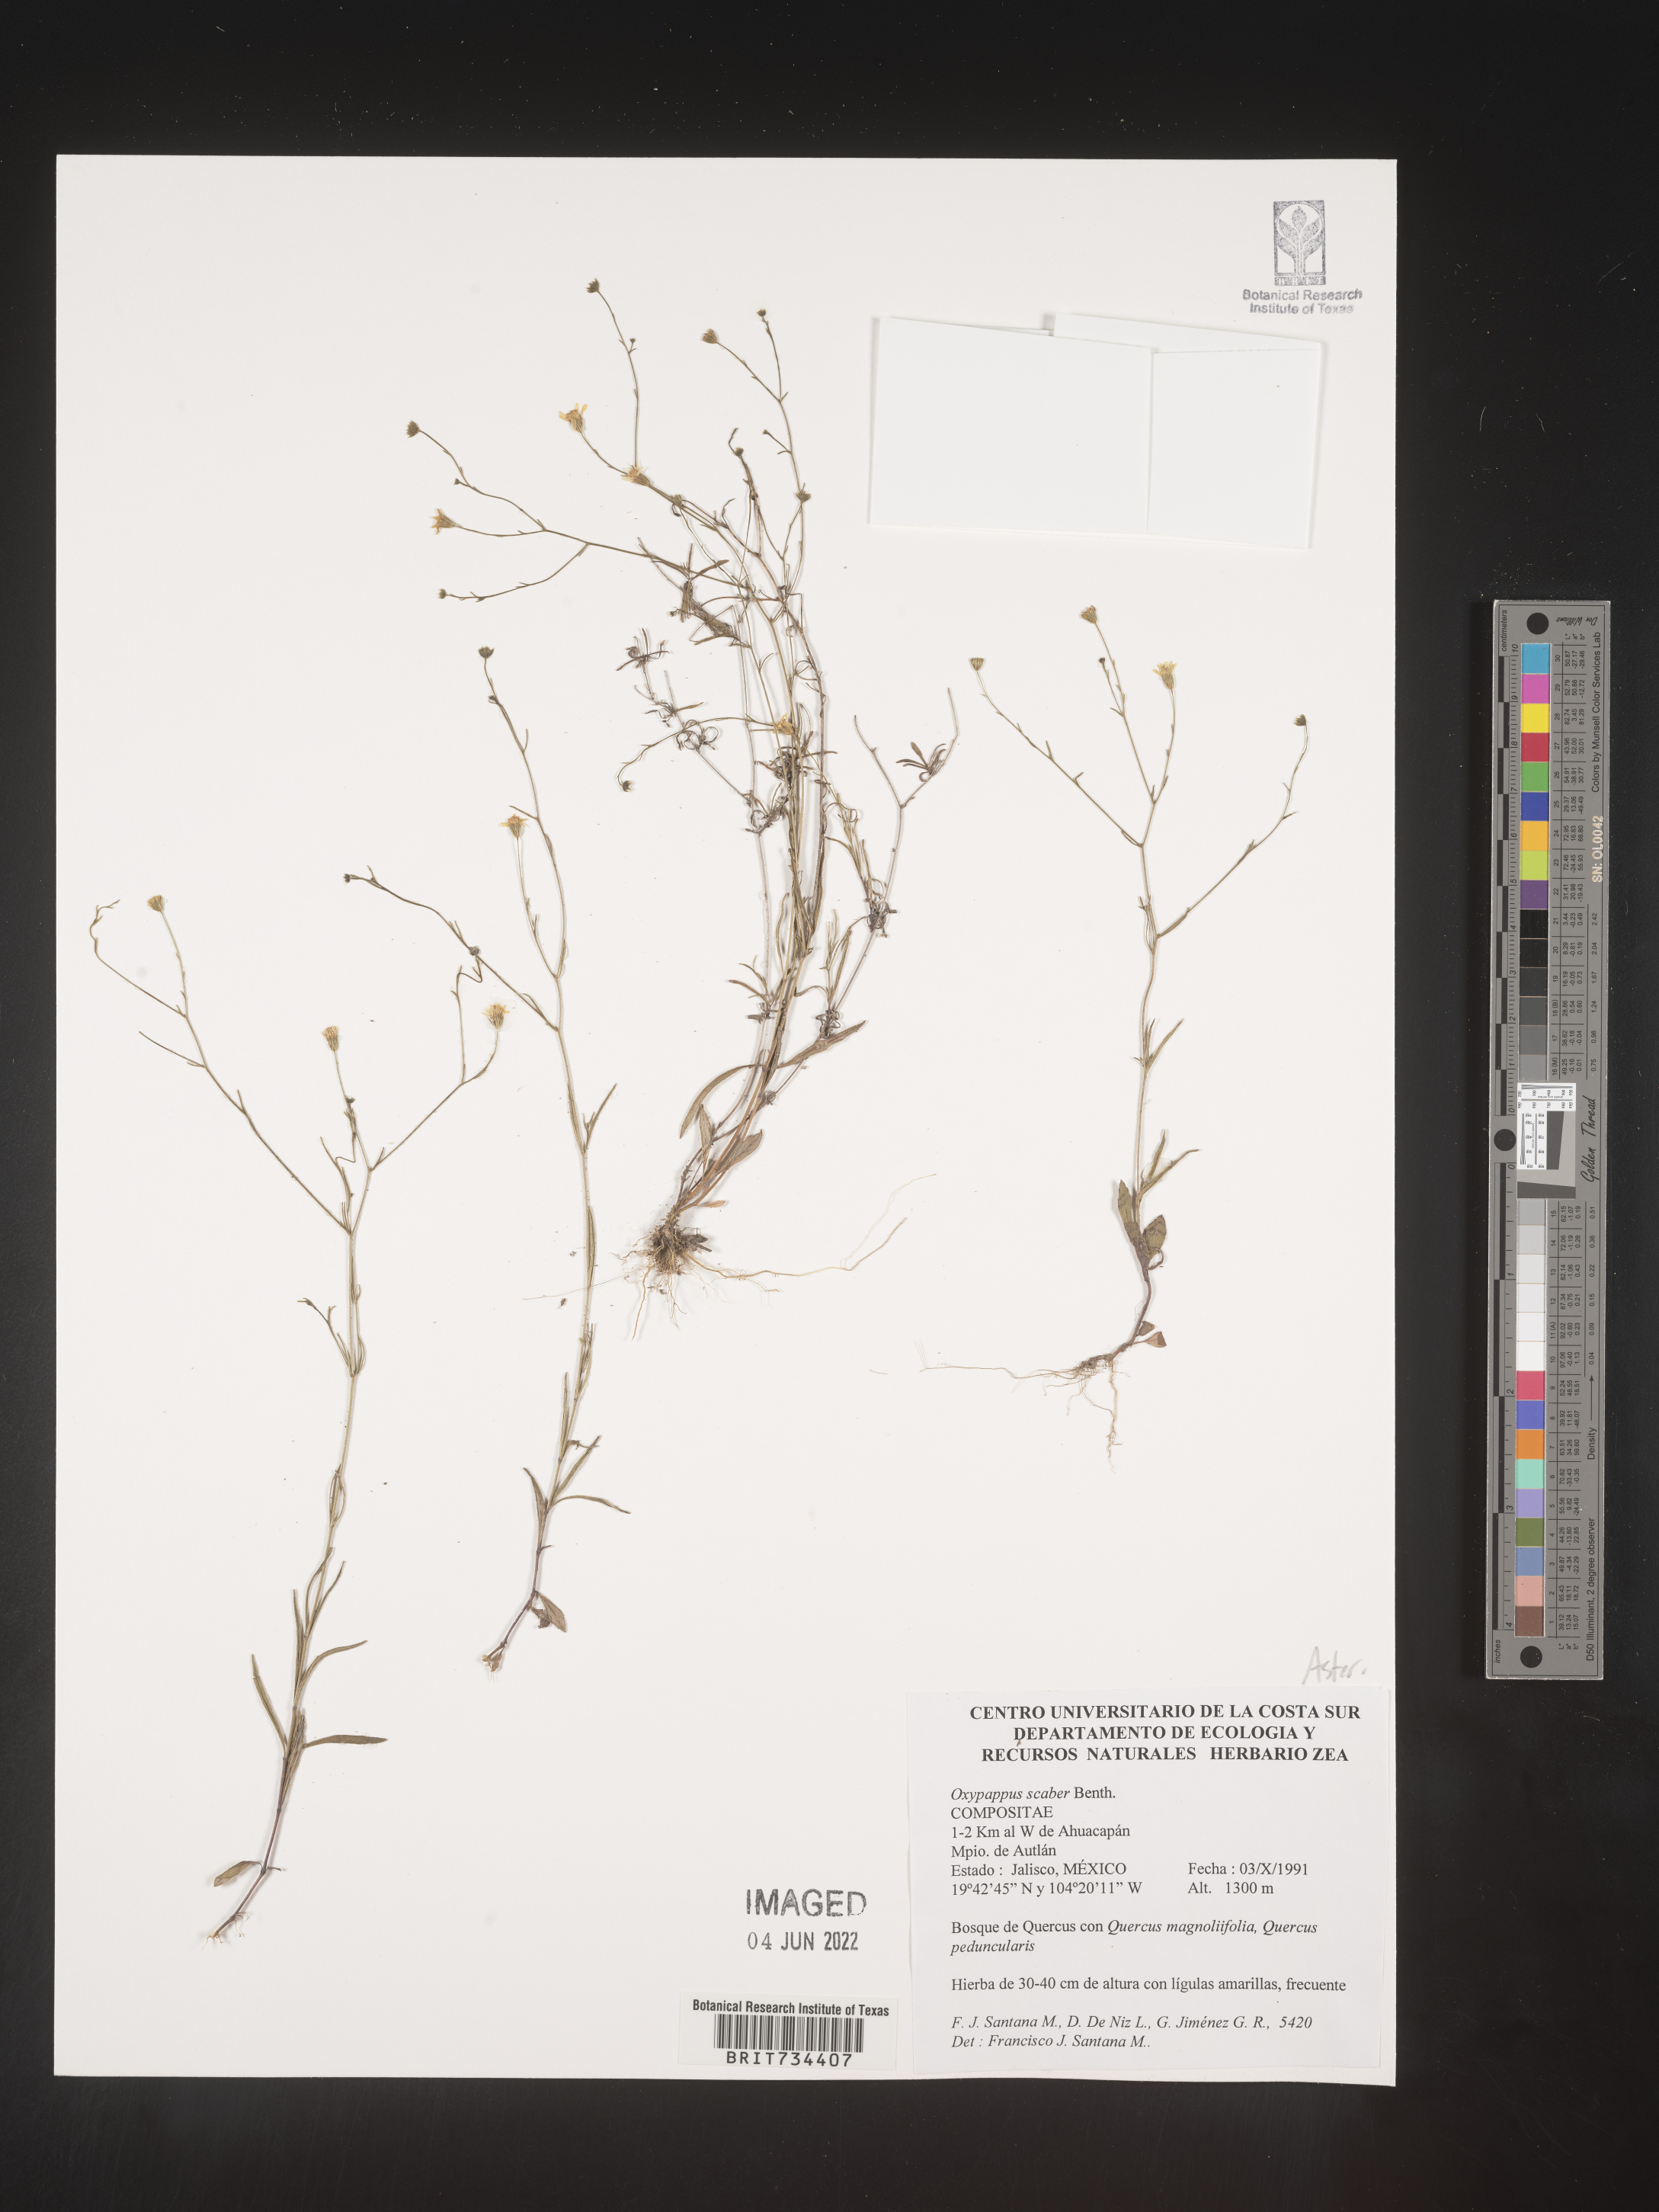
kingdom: Plantae
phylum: Tracheophyta
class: Magnoliopsida
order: Asterales
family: Asteraceae
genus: Oxypappus
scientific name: Oxypappus
